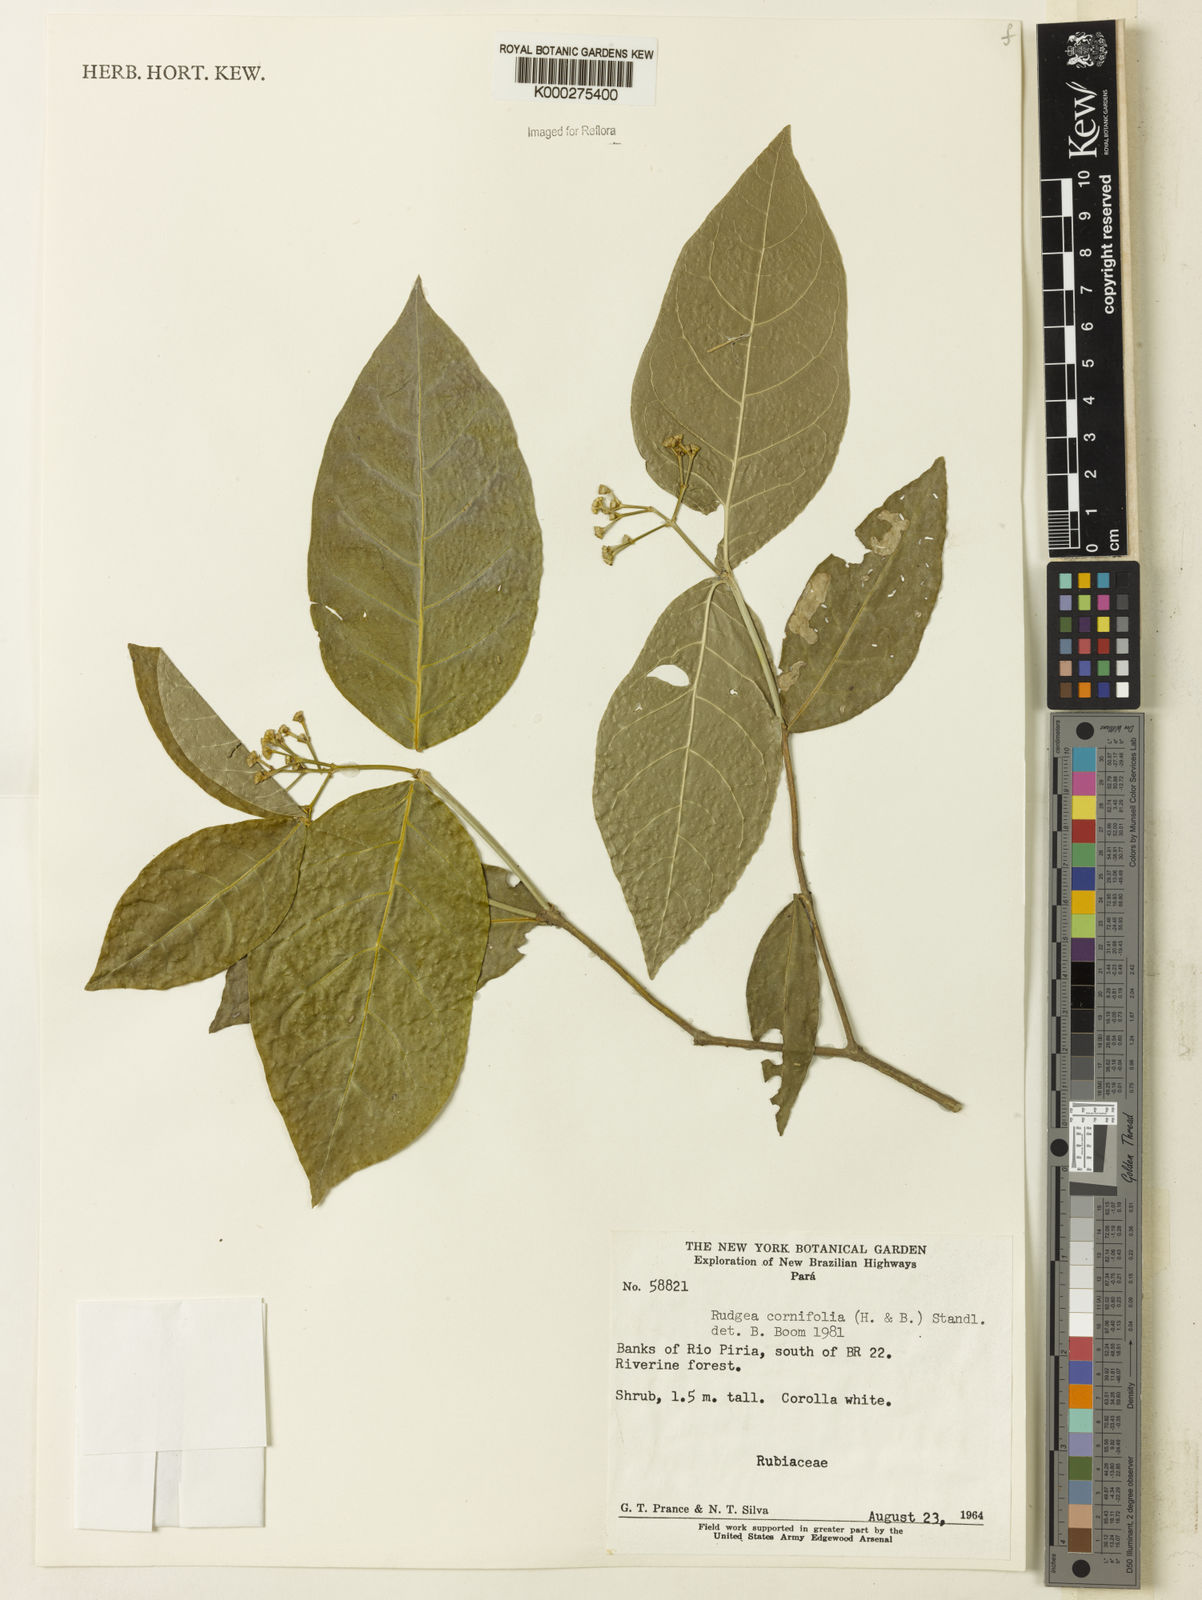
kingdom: Plantae
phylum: Tracheophyta
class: Magnoliopsida
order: Gentianales
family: Rubiaceae
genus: Rudgea
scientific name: Rudgea cornifolia
